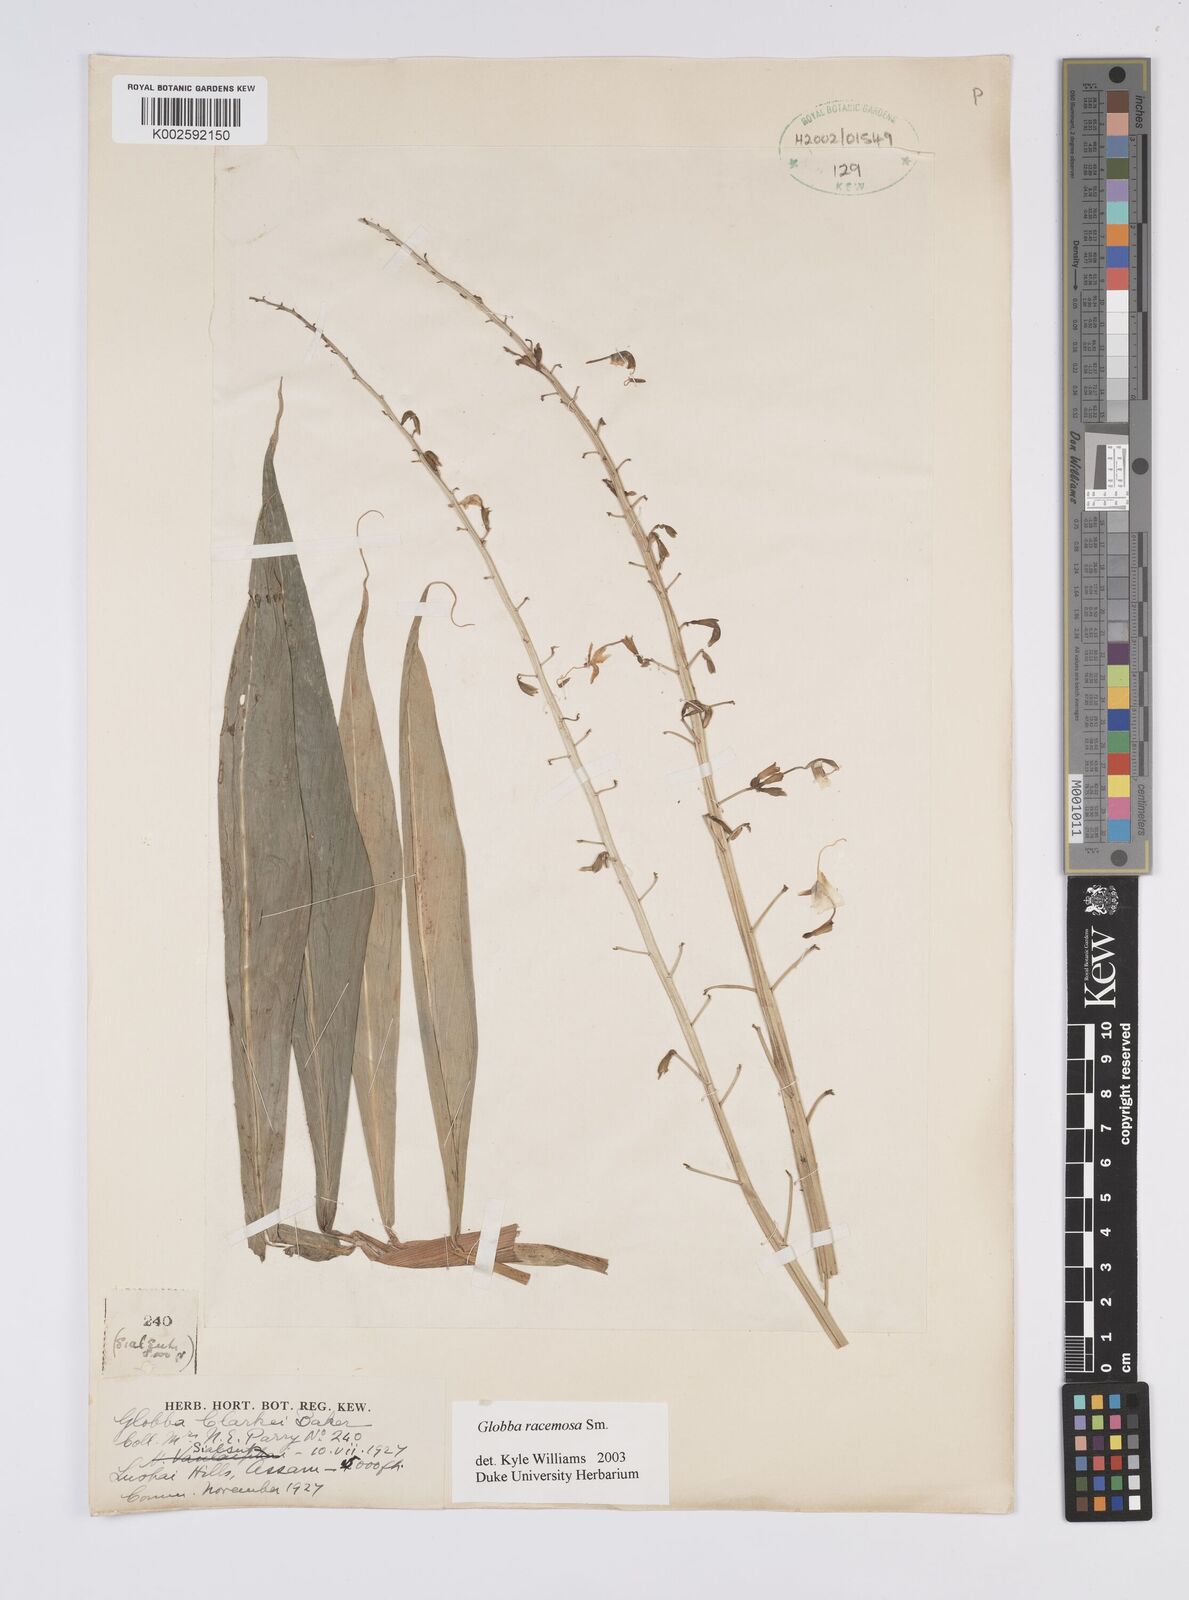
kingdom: Plantae
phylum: Tracheophyta
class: Liliopsida
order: Zingiberales
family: Zingiberaceae
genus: Globba
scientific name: Globba racemosa
